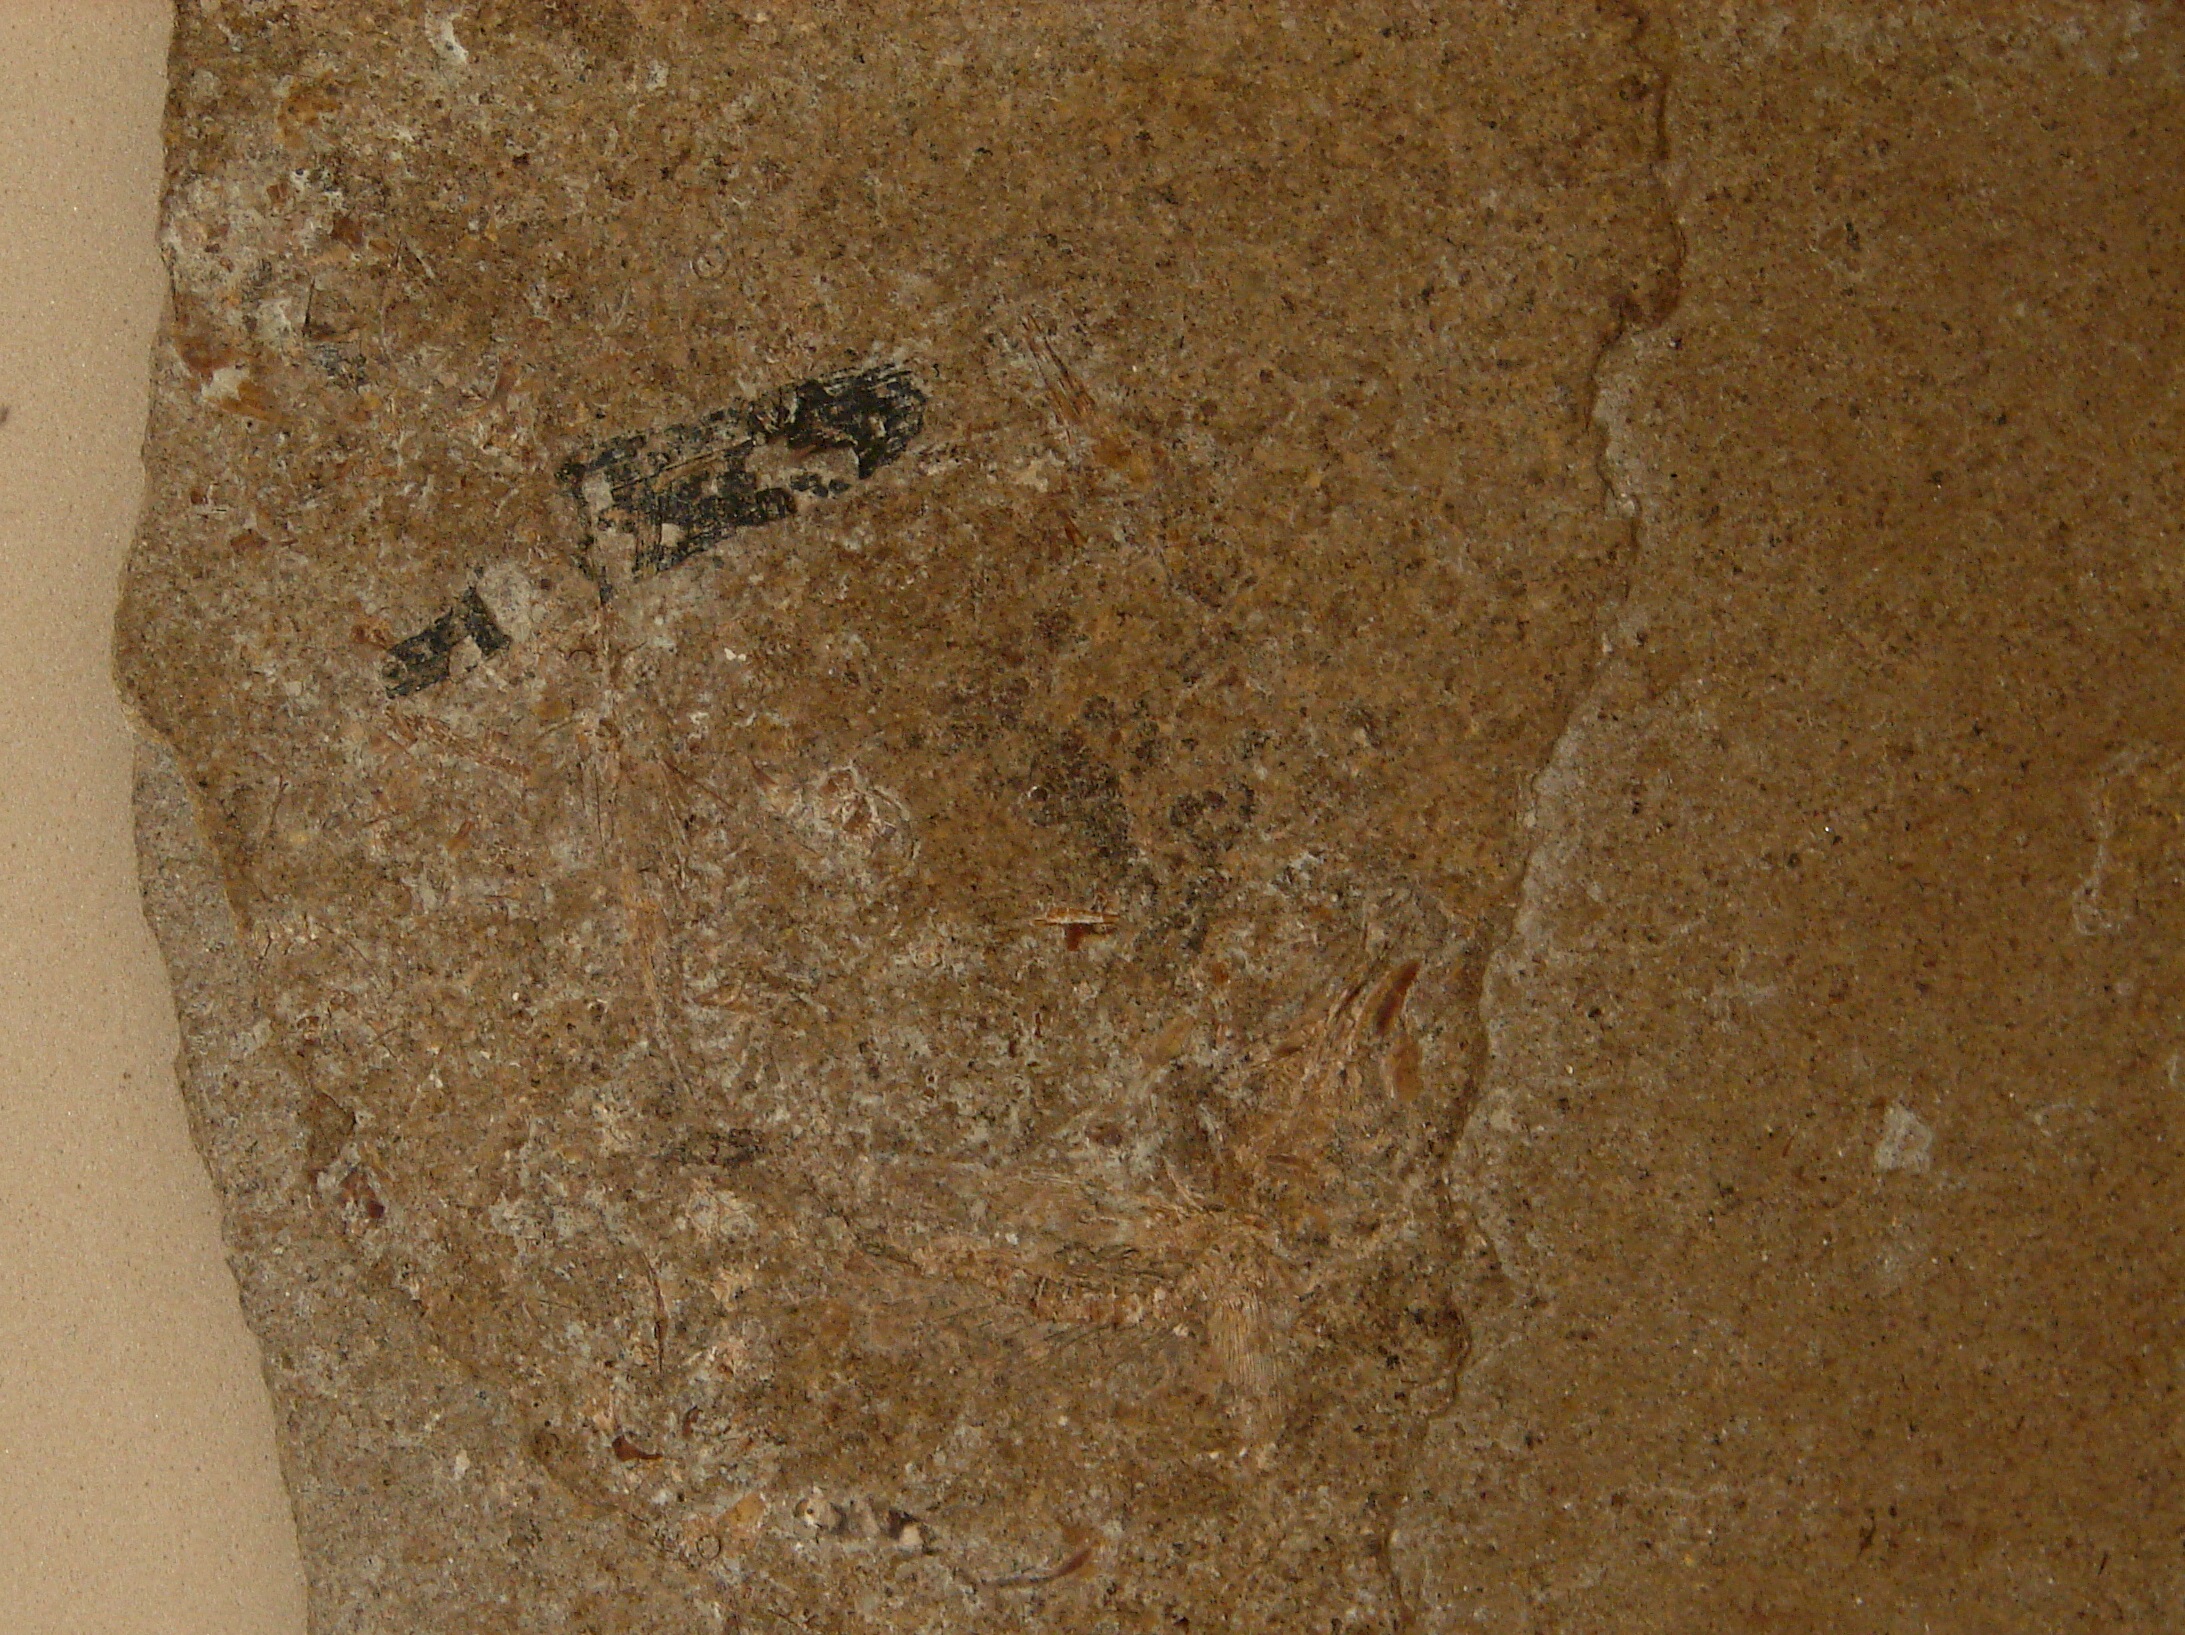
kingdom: Animalia
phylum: Chordata
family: Leptolepididae
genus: Leptolepis
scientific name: Leptolepis normandica
